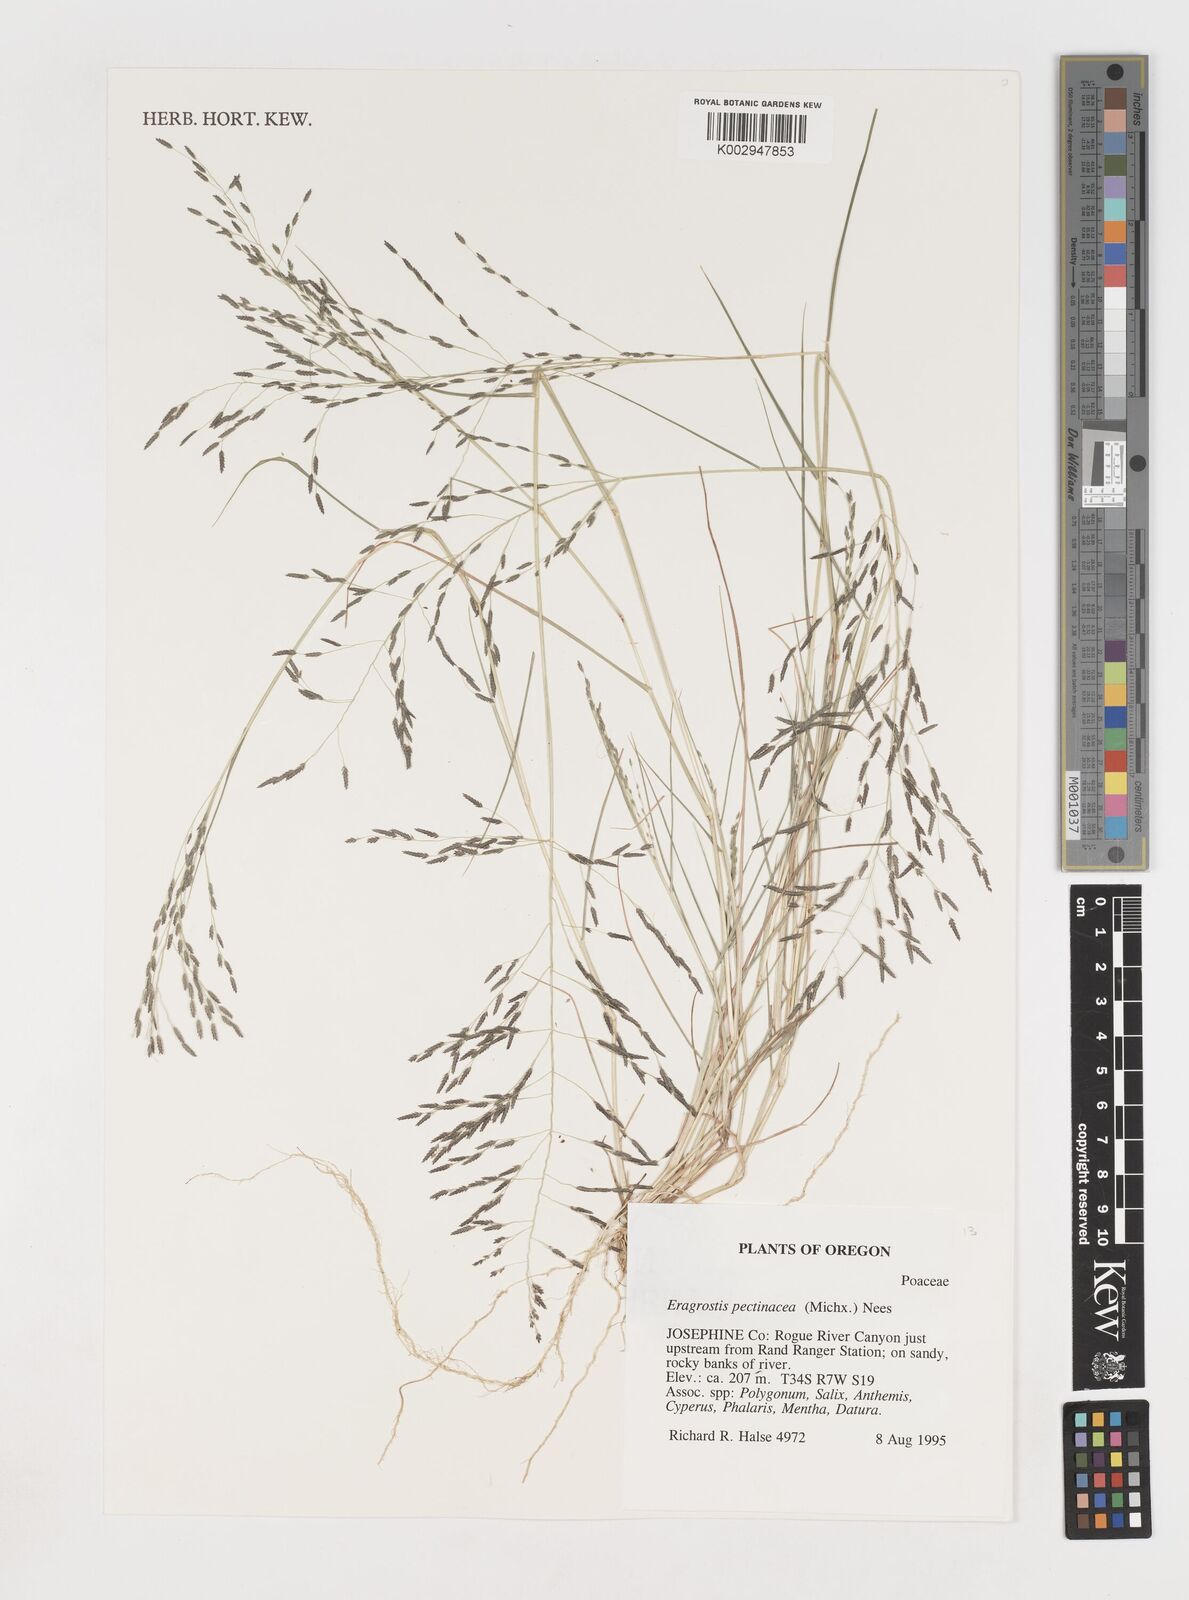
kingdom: Plantae
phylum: Tracheophyta
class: Liliopsida
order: Poales
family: Poaceae
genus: Eragrostis
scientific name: Eragrostis pectinacea
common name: Tufted lovegrass
